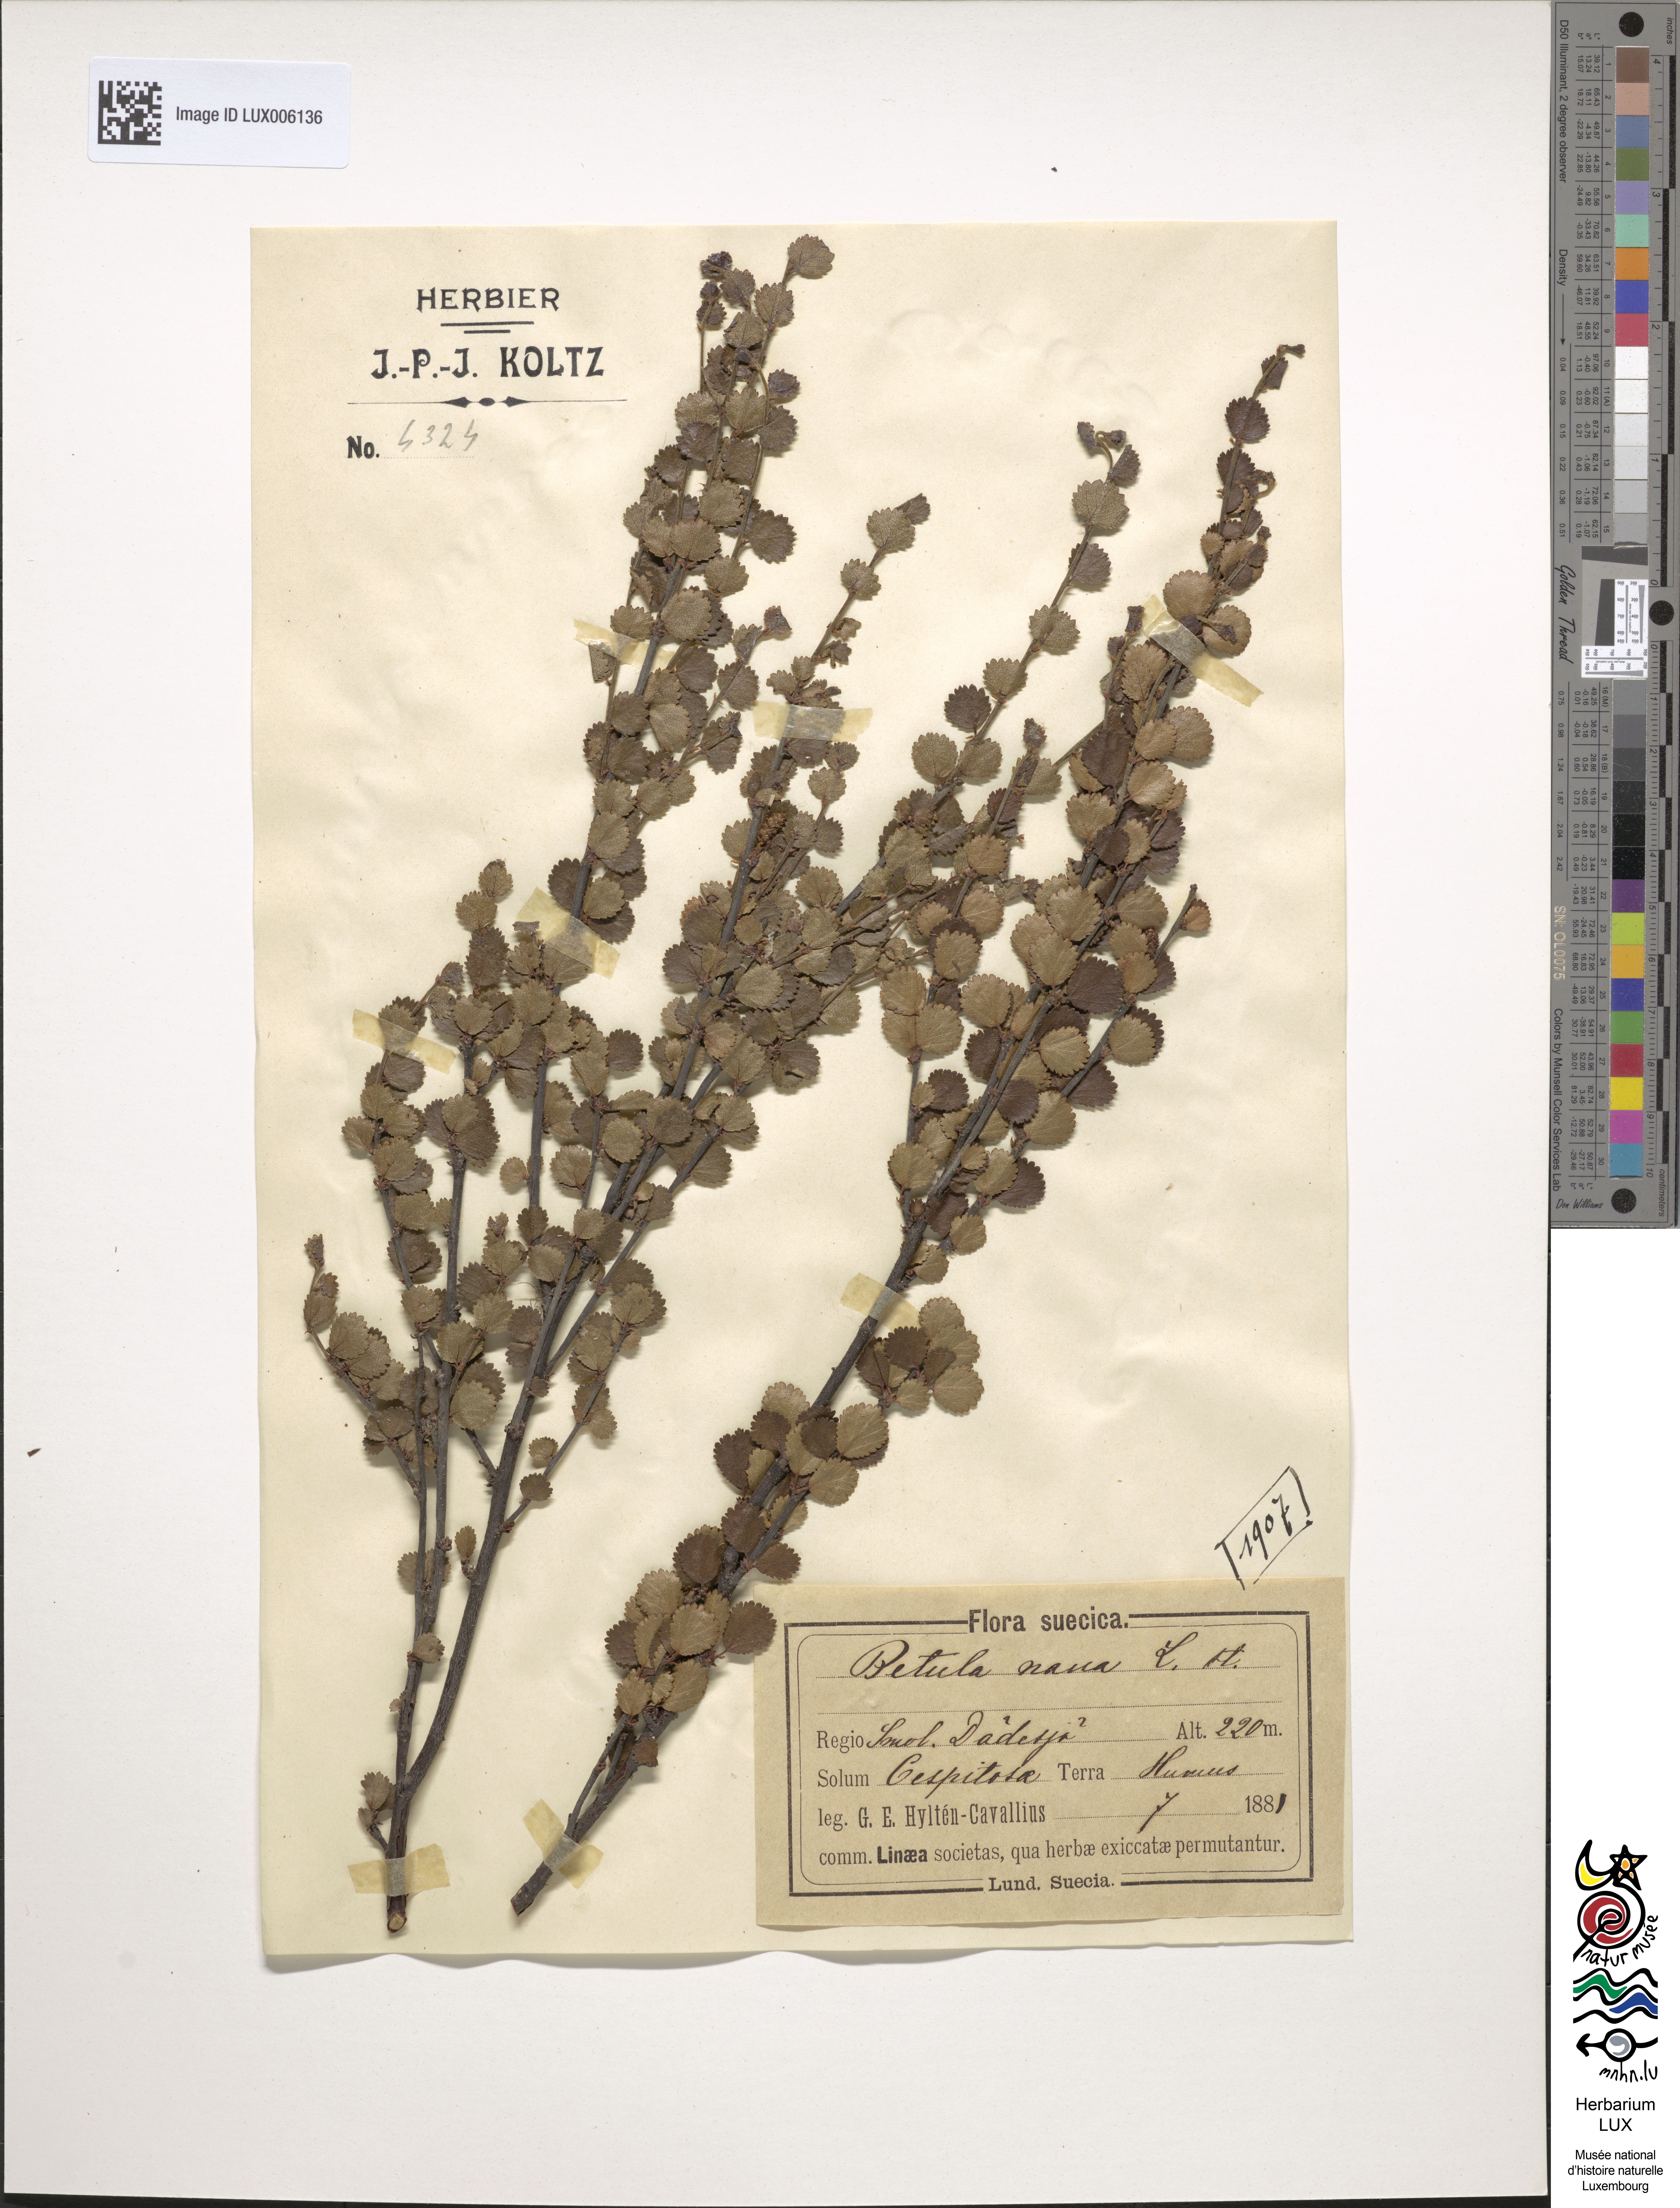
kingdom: Plantae
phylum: Tracheophyta
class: Magnoliopsida
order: Fagales
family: Betulaceae
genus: Betula
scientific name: Betula nana
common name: Arctic dwarf birch
